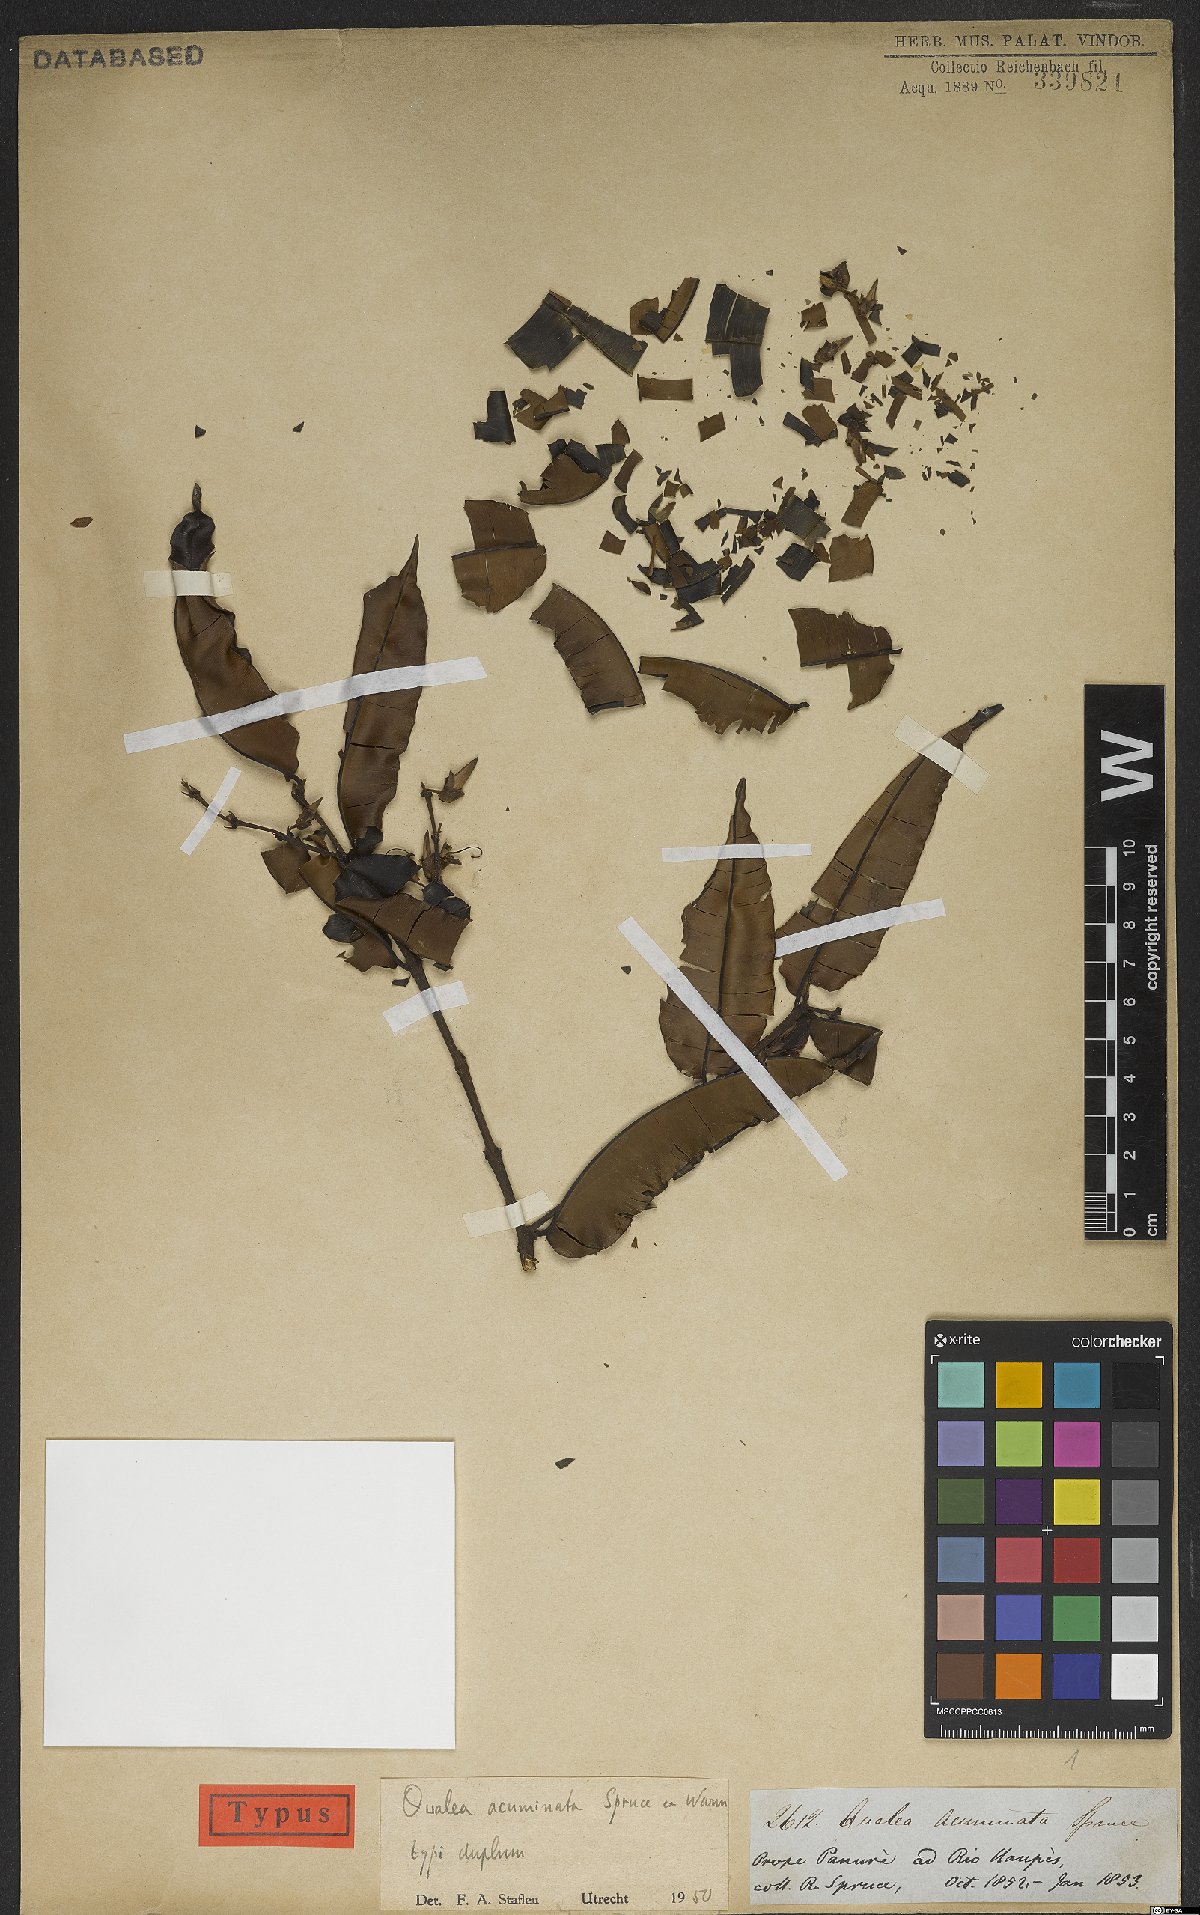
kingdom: Plantae
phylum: Tracheophyta
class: Magnoliopsida
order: Myrtales
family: Vochysiaceae
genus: Qualea
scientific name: Qualea acuminata
